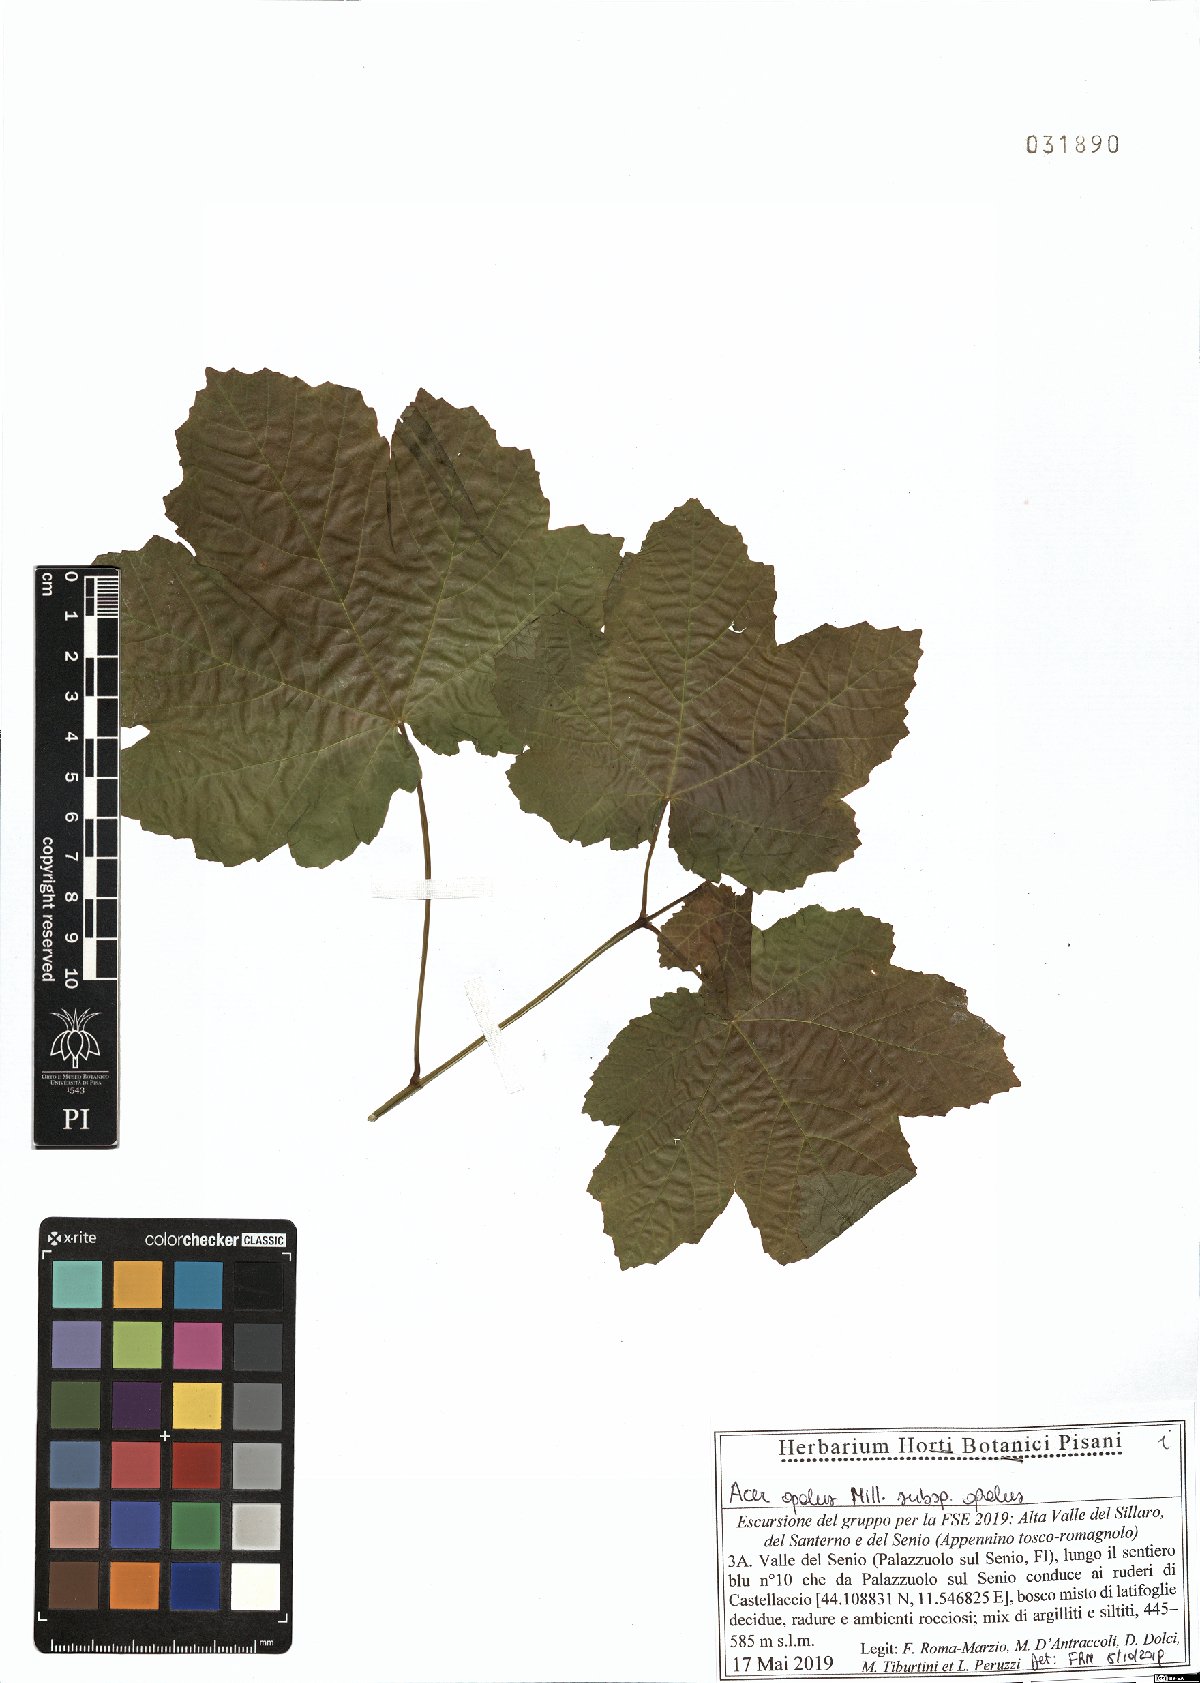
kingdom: Plantae
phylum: Tracheophyta
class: Magnoliopsida
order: Sapindales
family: Sapindaceae
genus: Acer
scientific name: Acer opalus
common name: Italian maple
